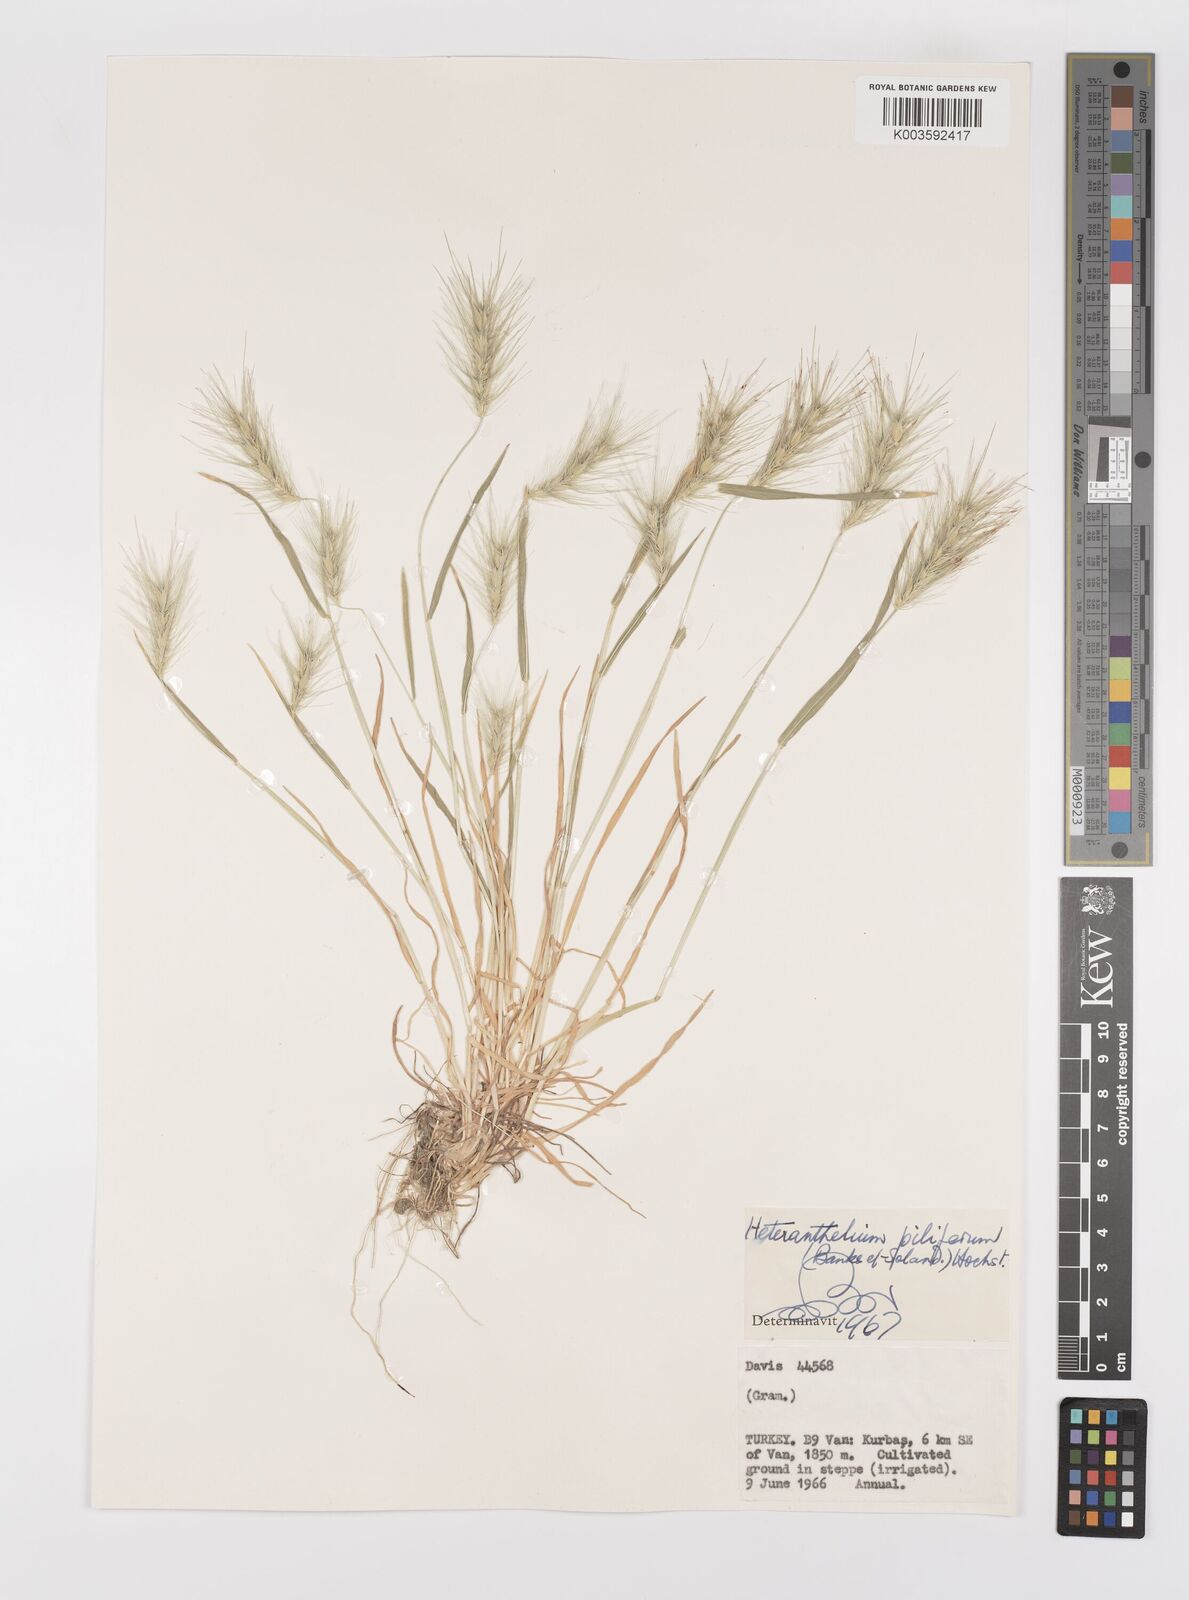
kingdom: Plantae
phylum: Tracheophyta
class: Liliopsida
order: Poales
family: Poaceae
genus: Heteranthelium
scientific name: Heteranthelium piliferum
